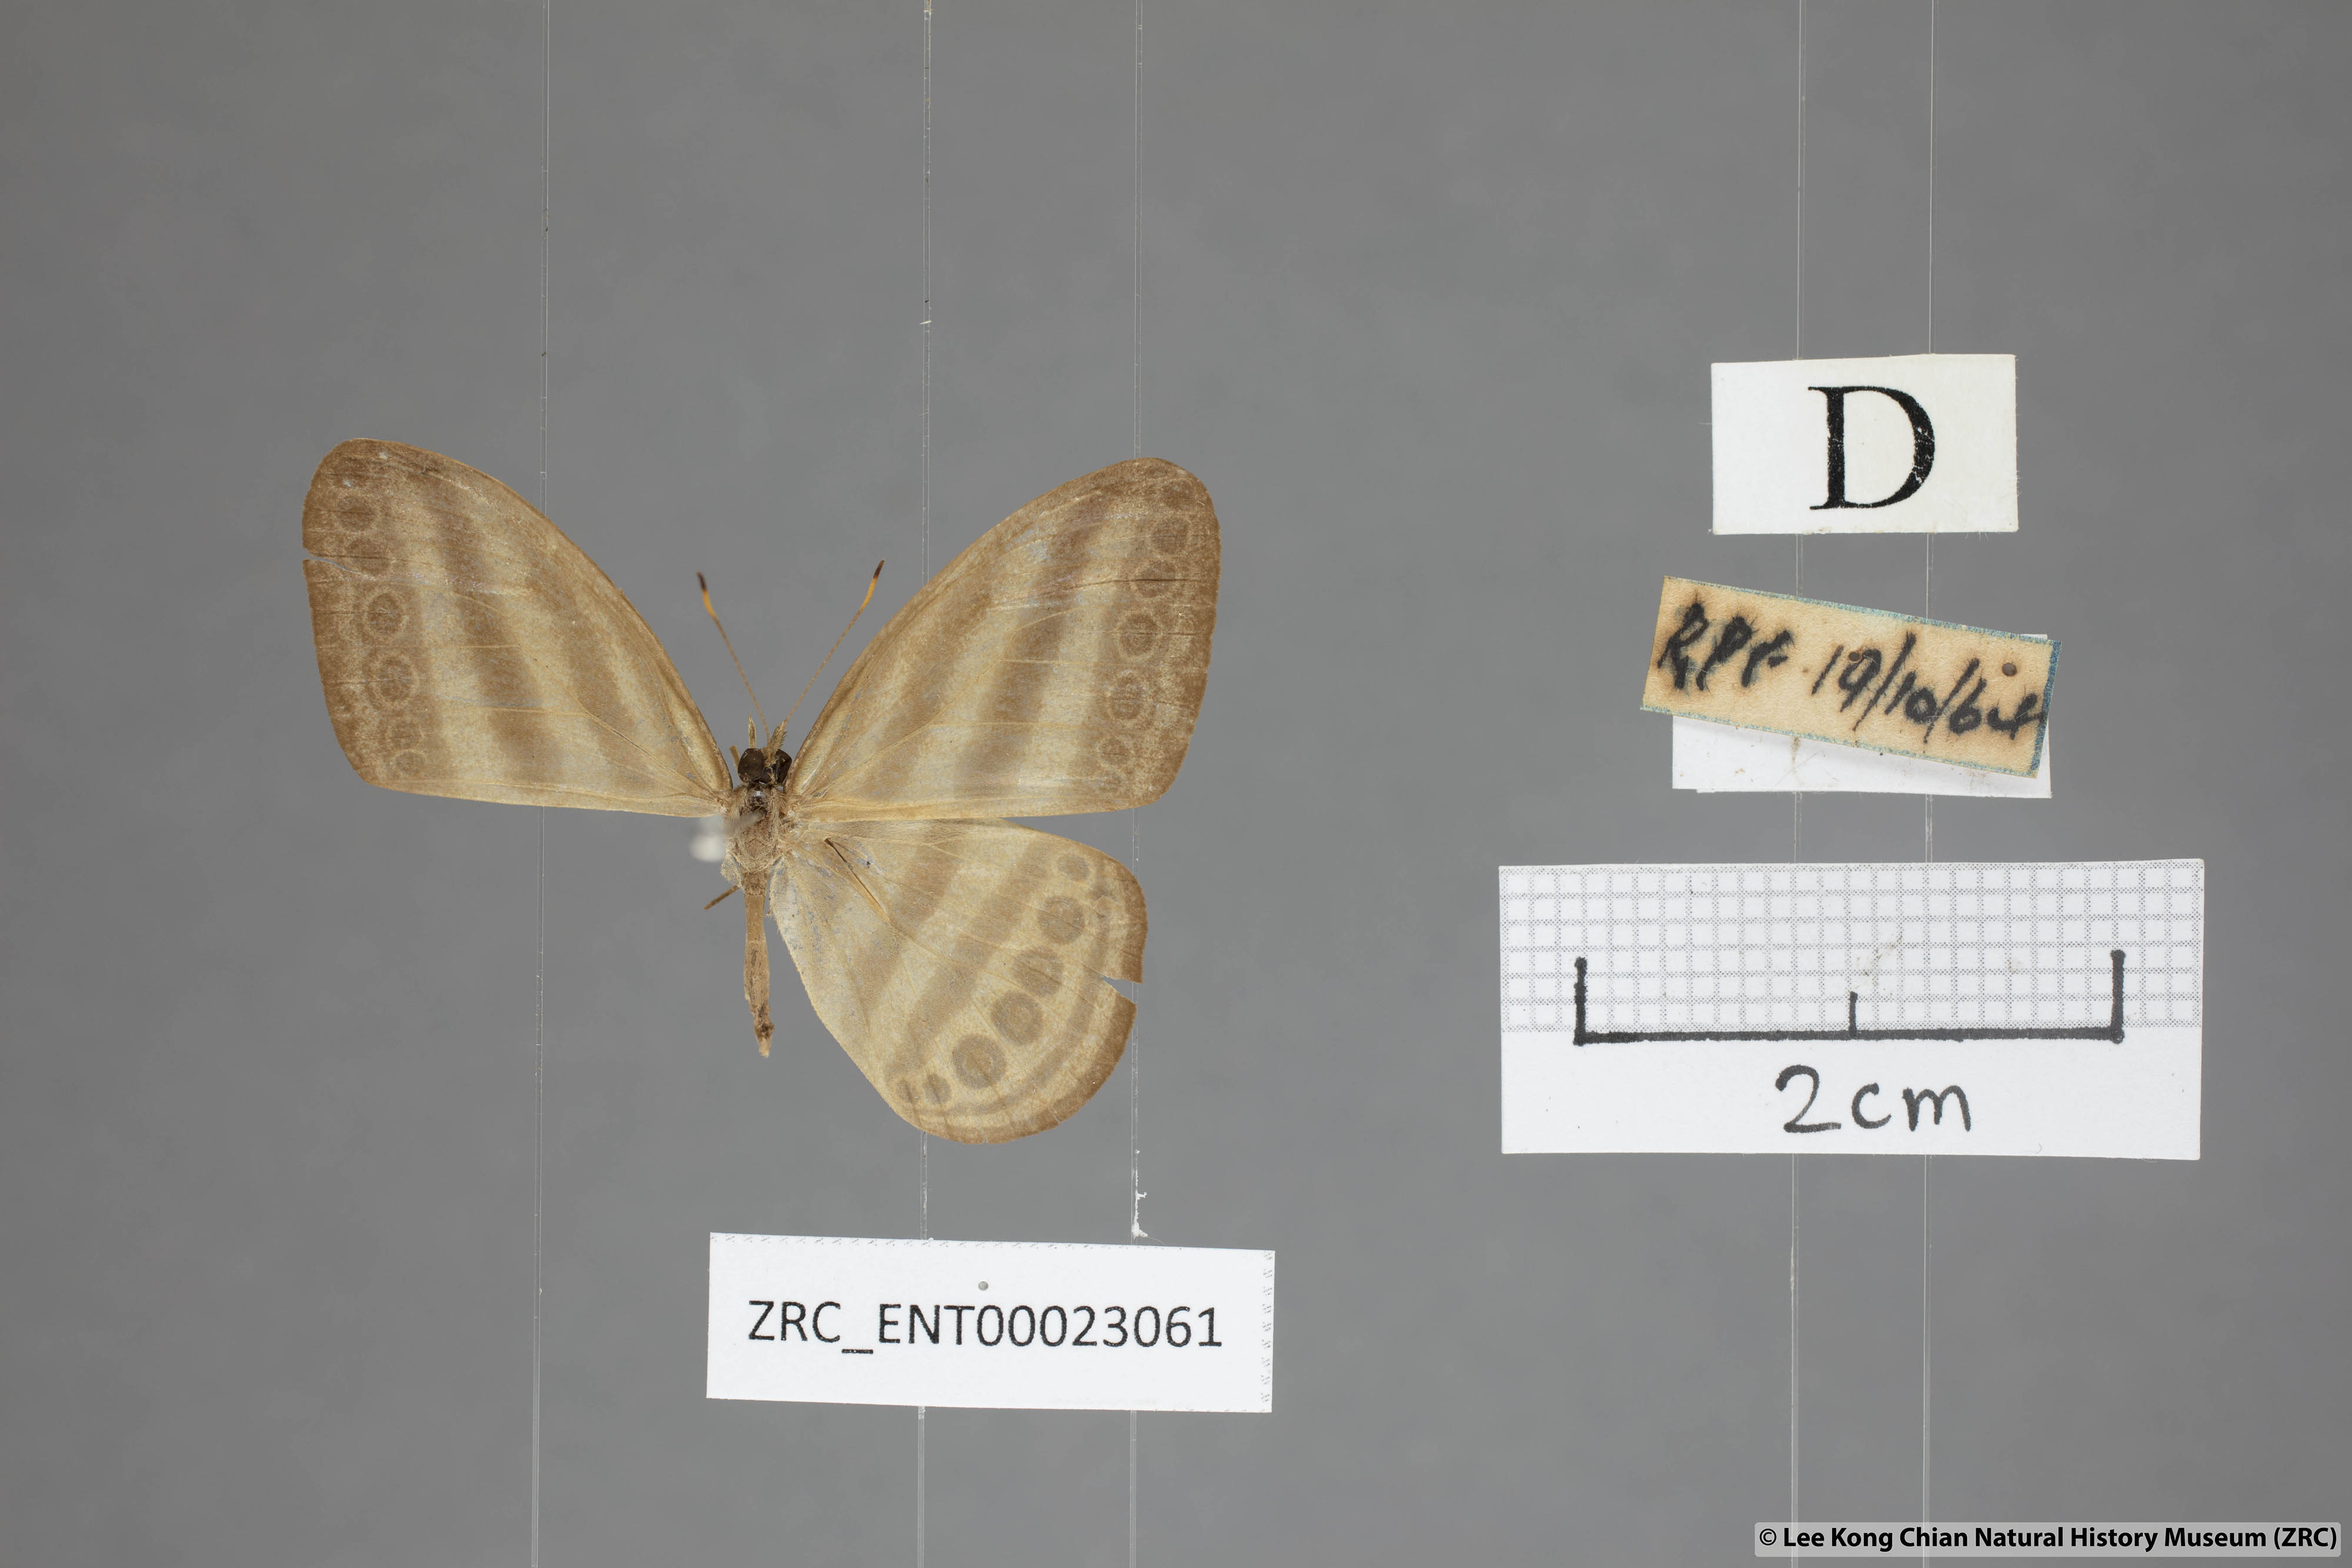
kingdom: Animalia
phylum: Arthropoda
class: Insecta
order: Lepidoptera
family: Nymphalidae
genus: Ragadia
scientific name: Ragadia makata
